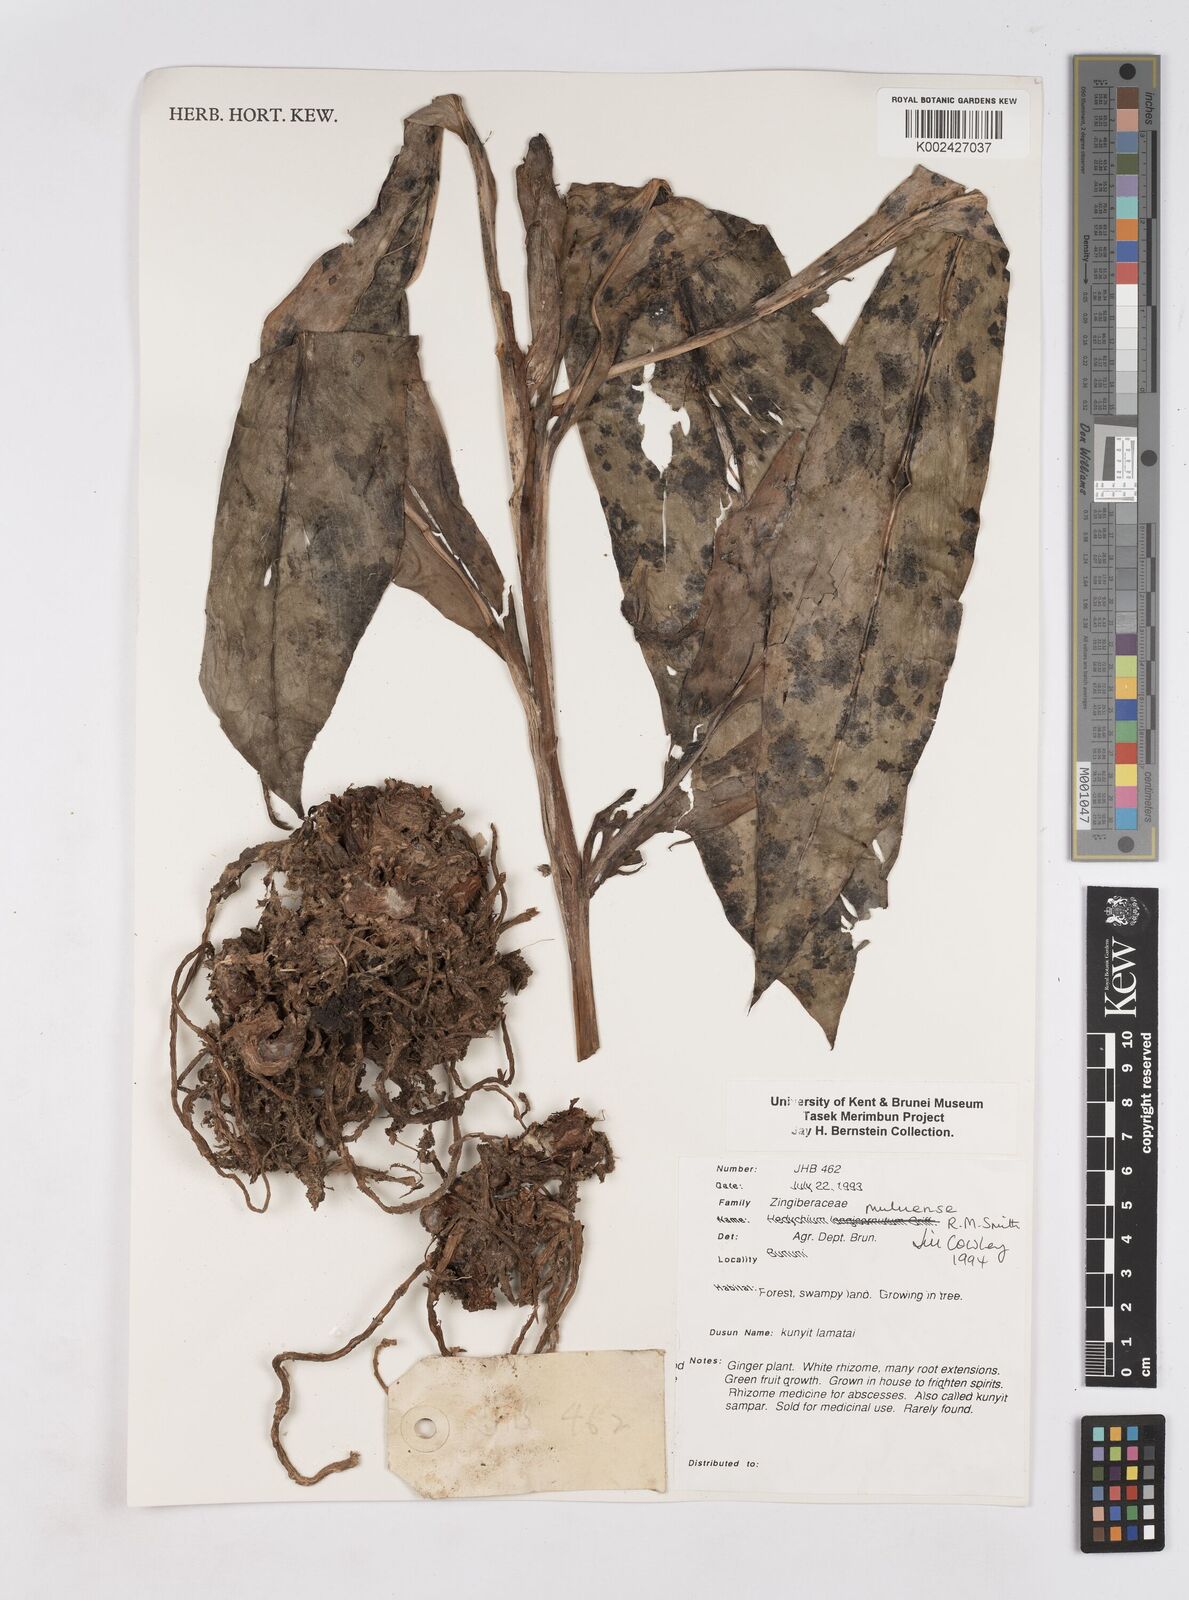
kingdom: Plantae
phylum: Tracheophyta
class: Liliopsida
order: Zingiberales
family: Zingiberaceae
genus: Hedychium
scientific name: Hedychium muluense
